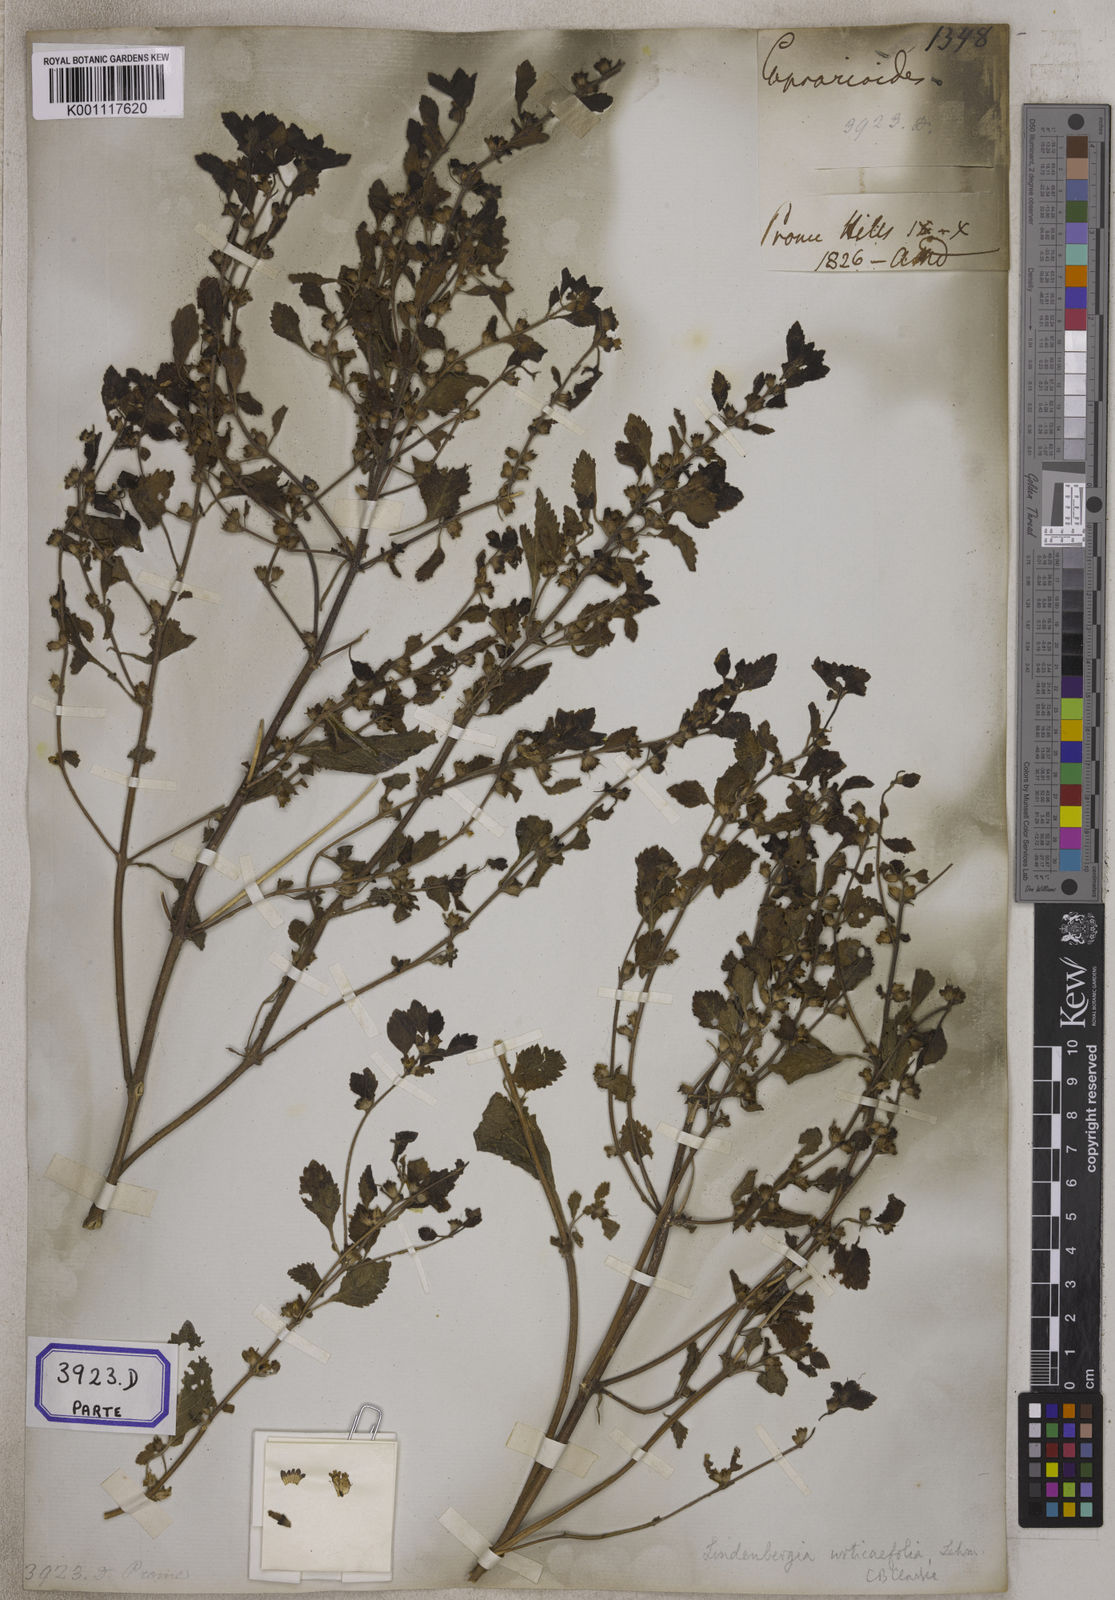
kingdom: Plantae
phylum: Tracheophyta
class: Magnoliopsida
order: Lamiales
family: Orobanchaceae
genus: Lindenbergia
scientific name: Lindenbergia muraria
